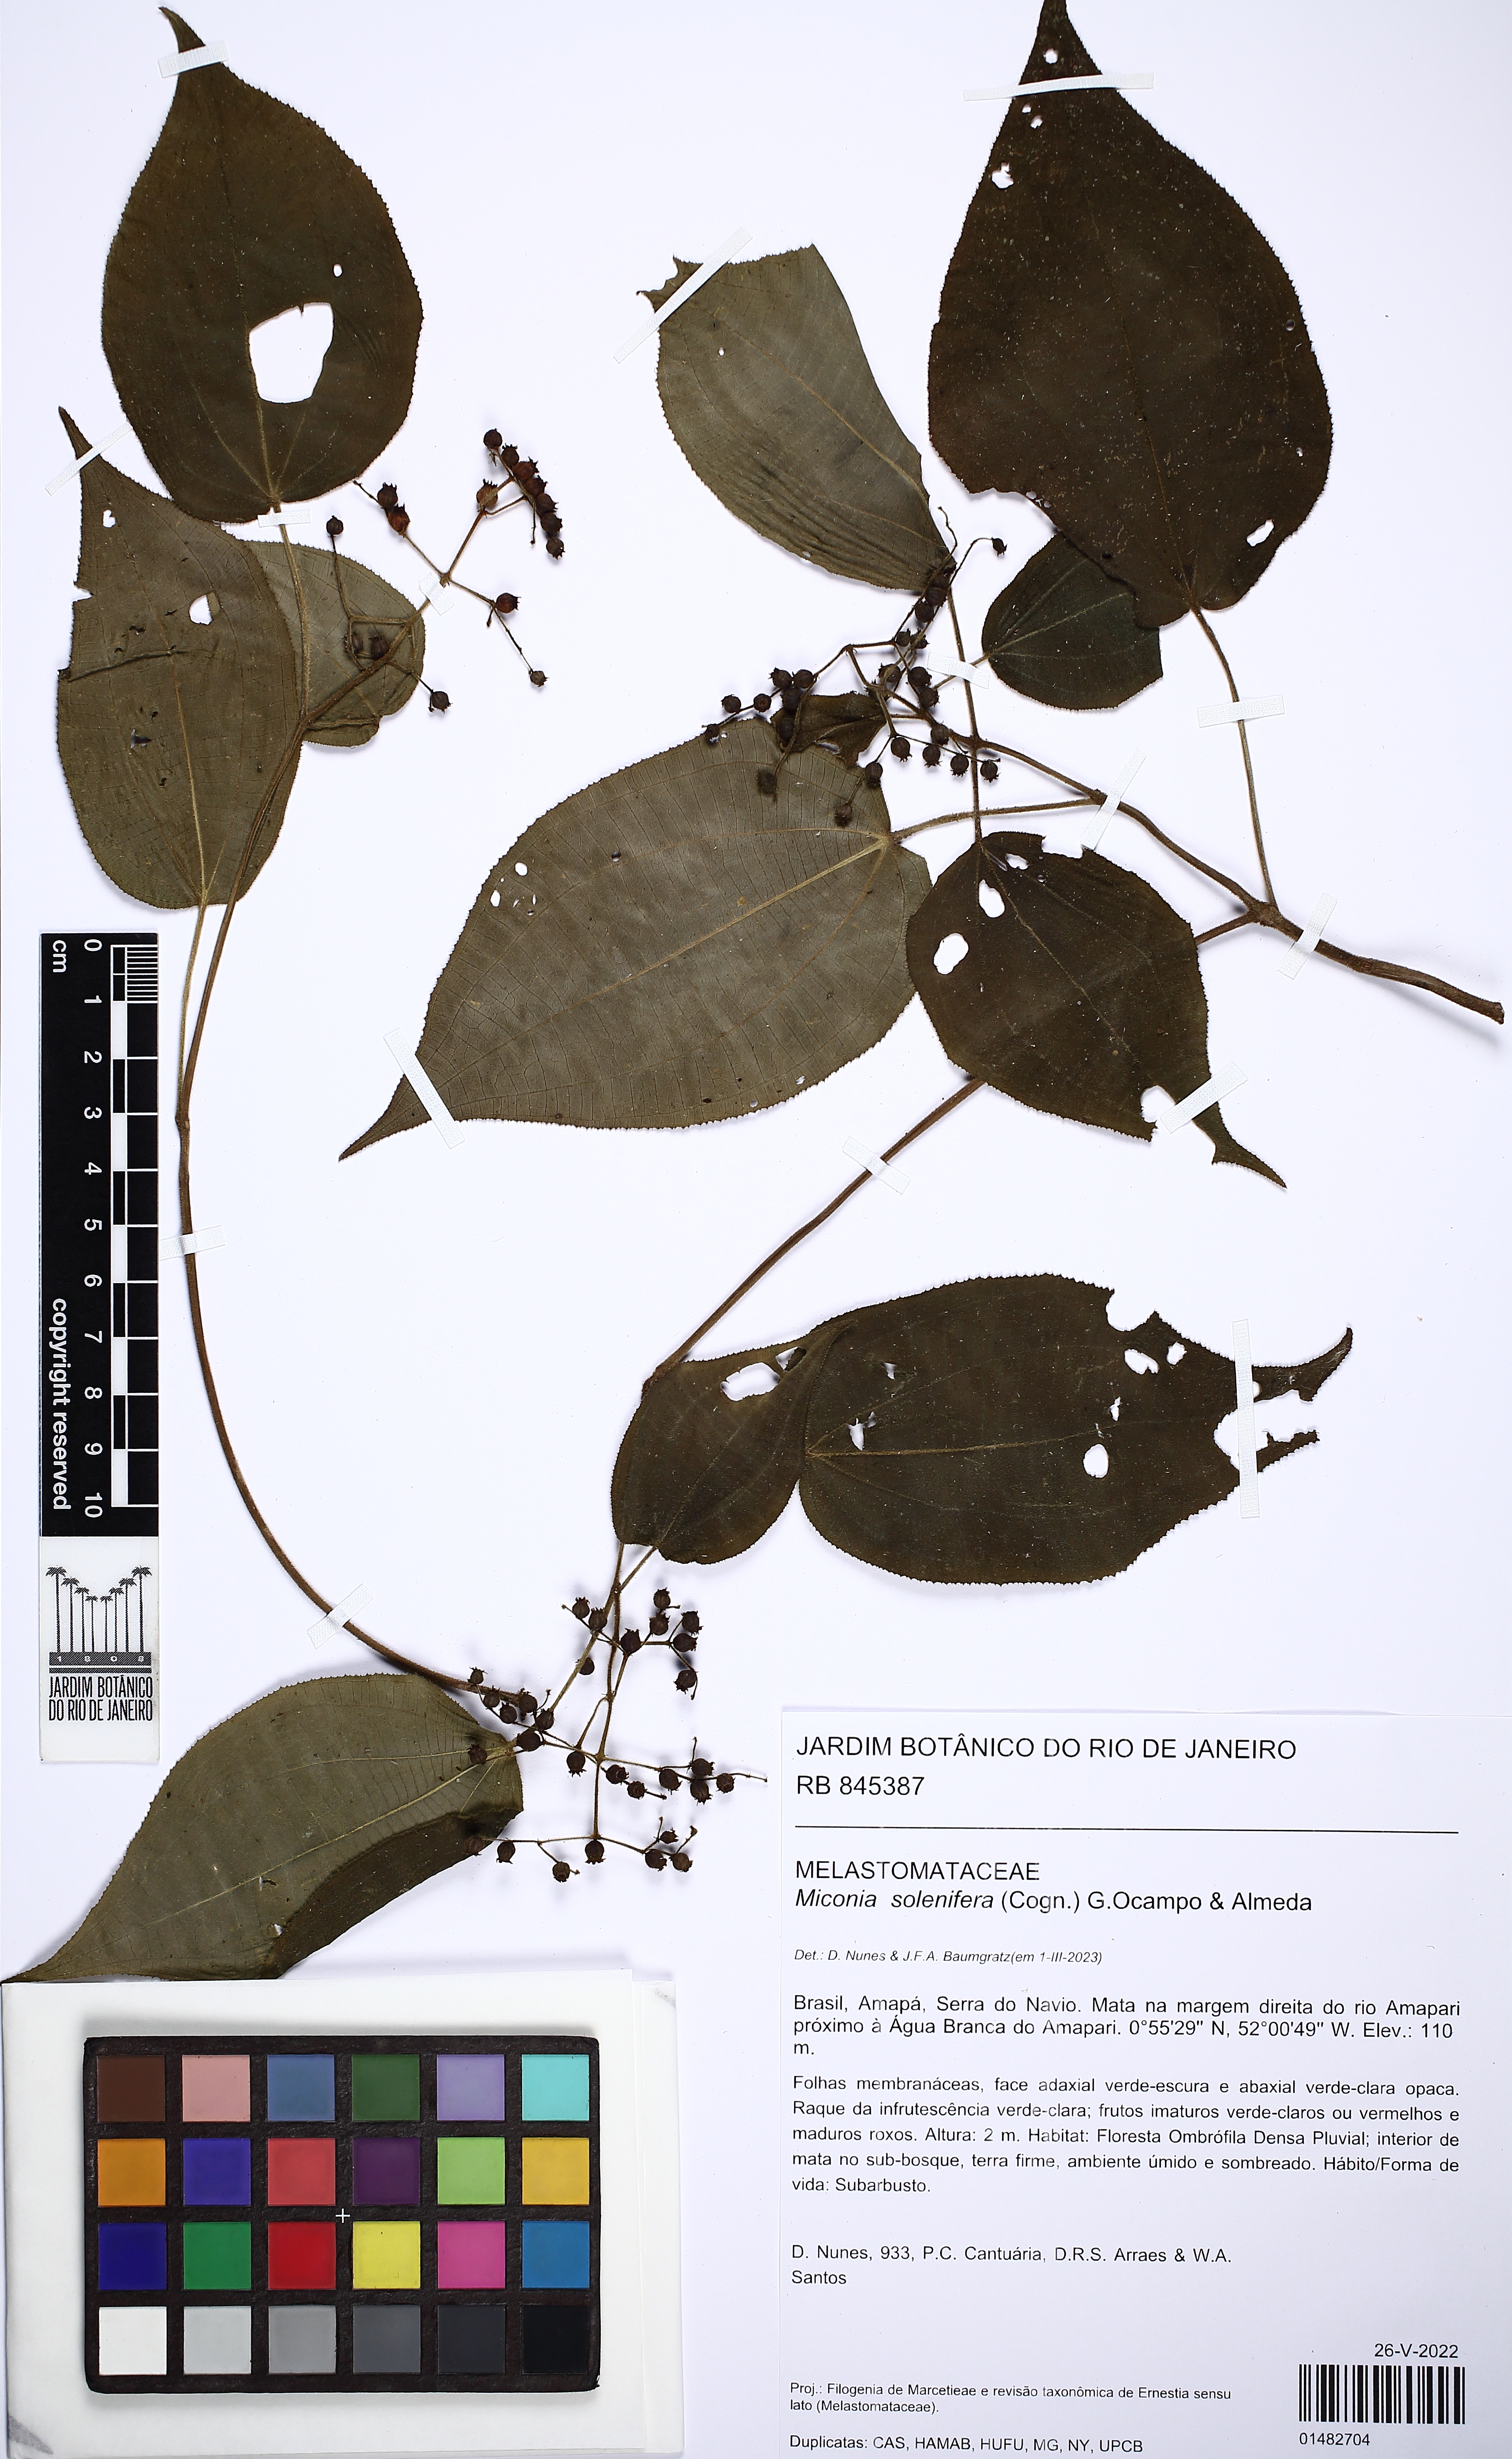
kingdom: Plantae
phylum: Tracheophyta
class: Magnoliopsida
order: Myrtales
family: Melastomataceae
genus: Miconia
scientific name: Miconia solenifera
